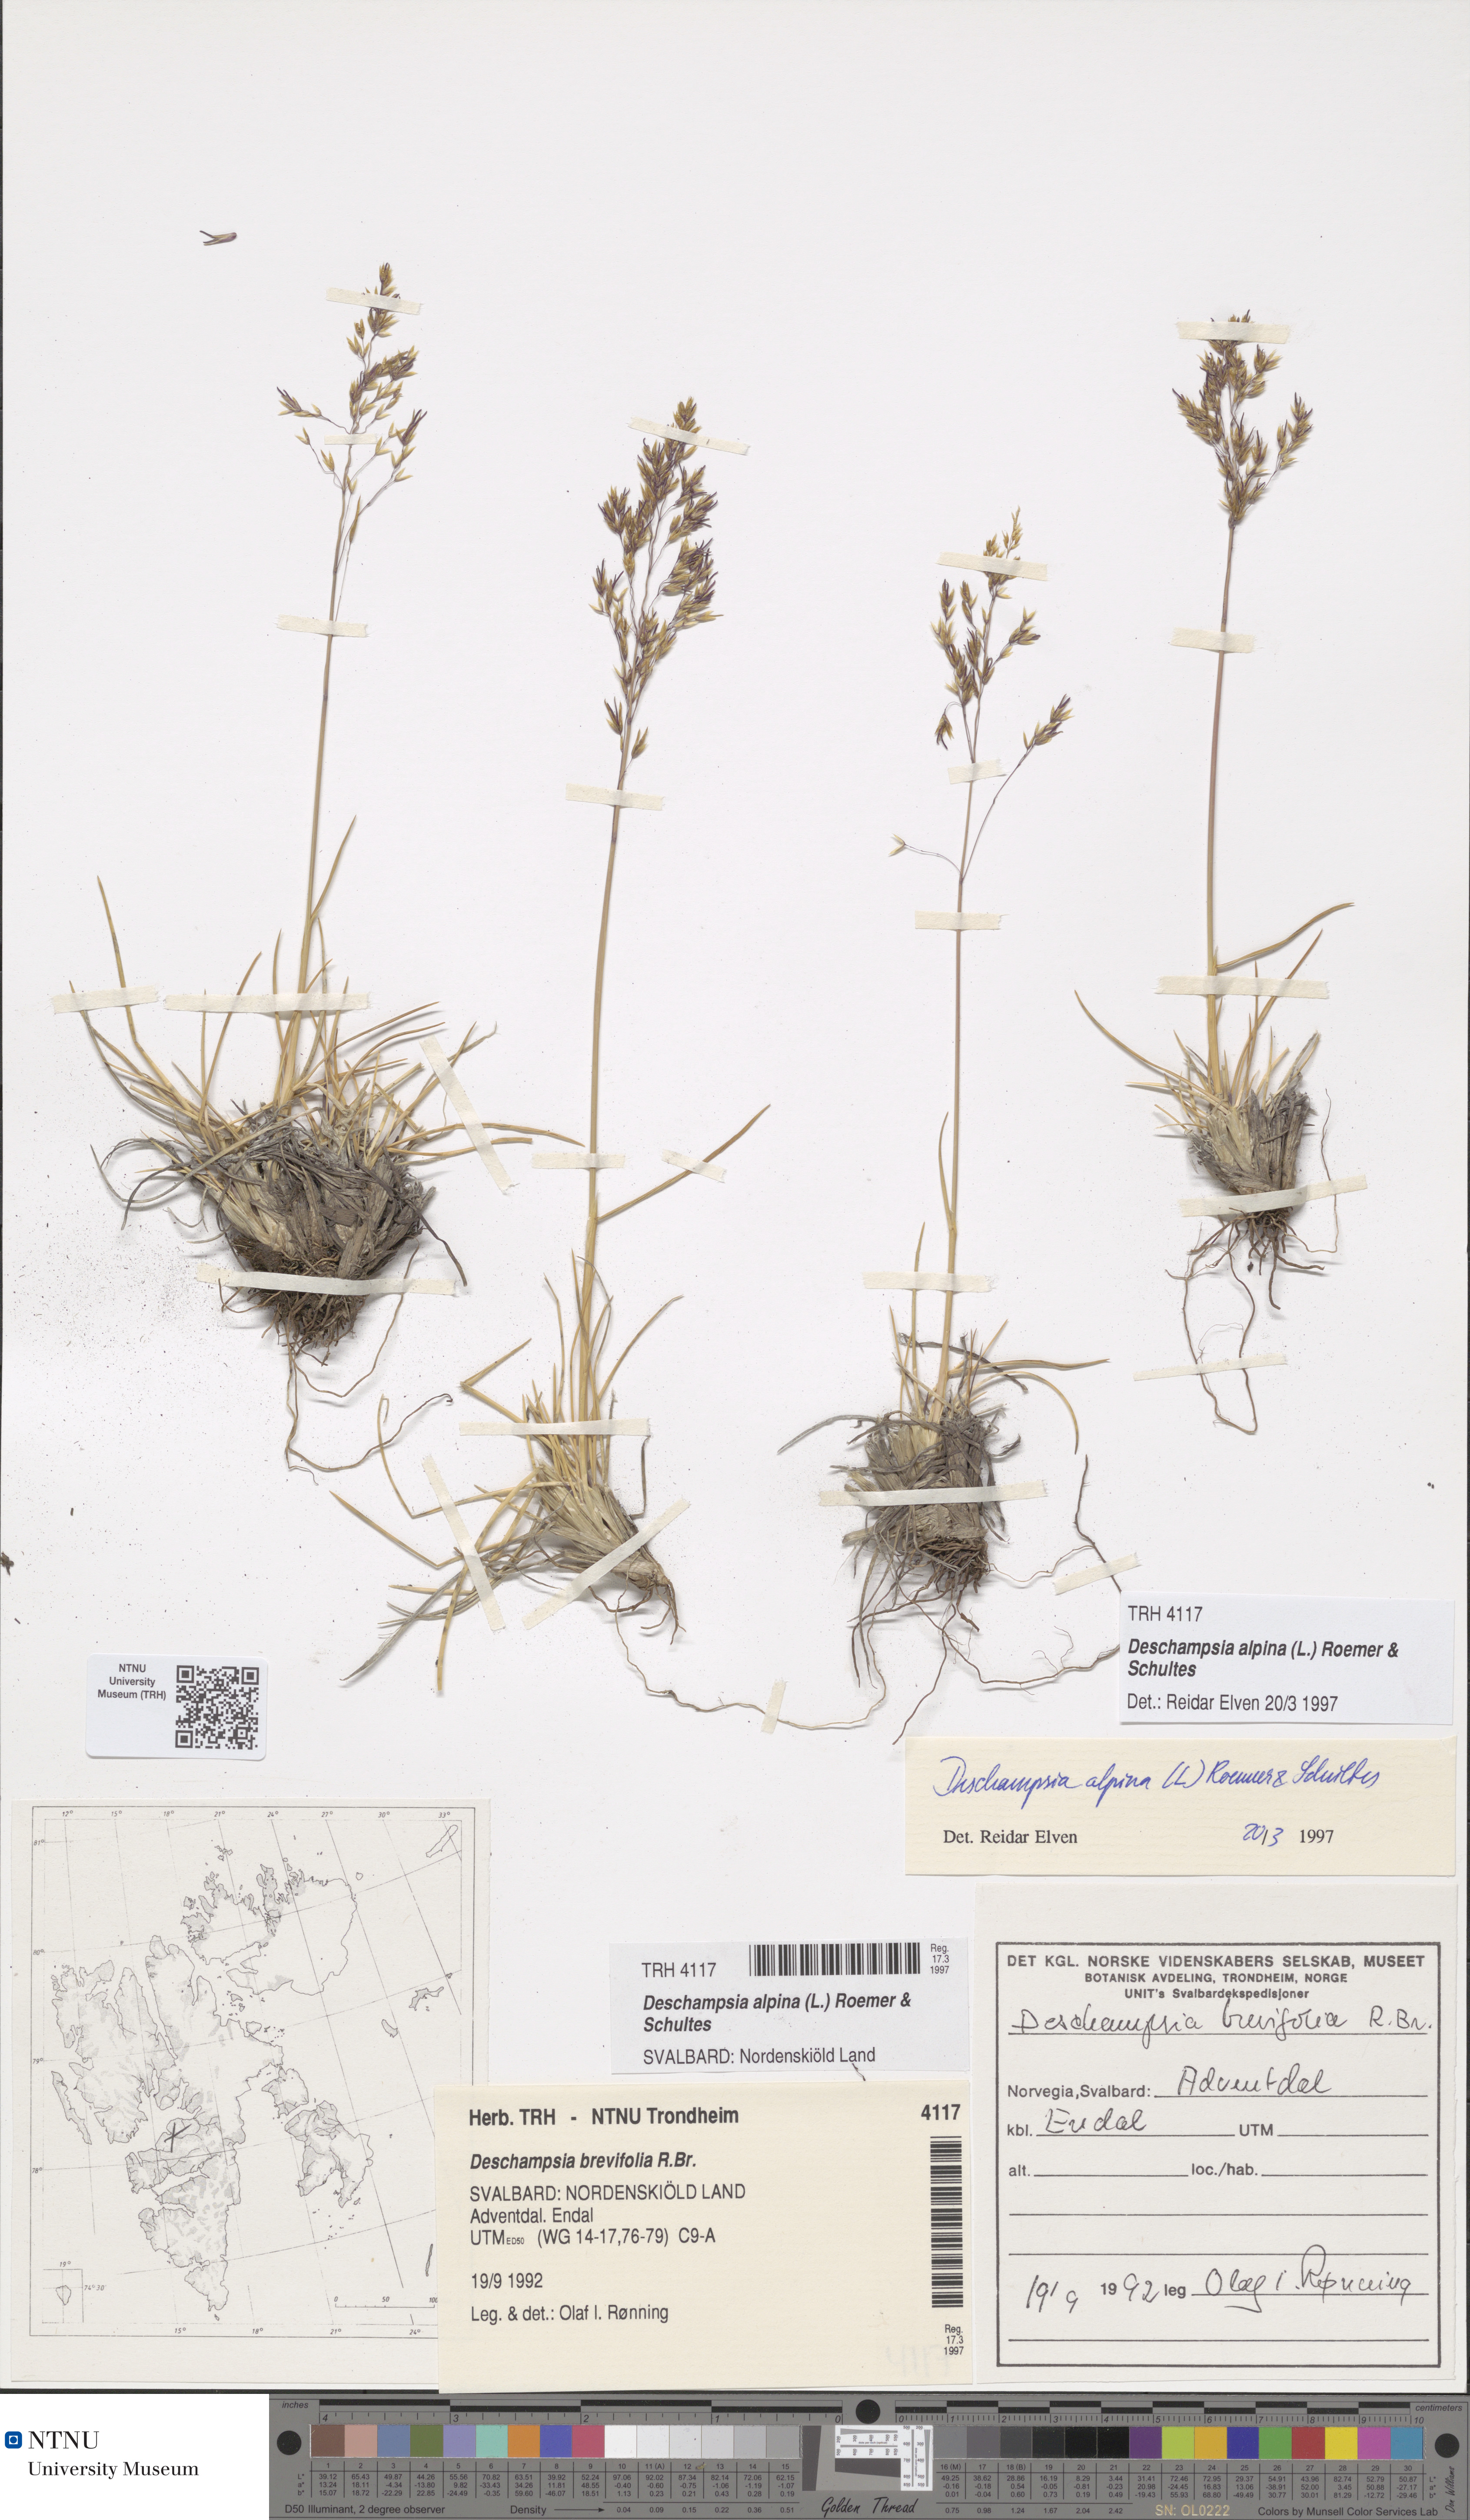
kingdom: Plantae
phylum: Tracheophyta
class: Liliopsida
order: Poales
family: Poaceae
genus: Deschampsia
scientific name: Deschampsia cespitosa
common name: Tufted hair-grass
